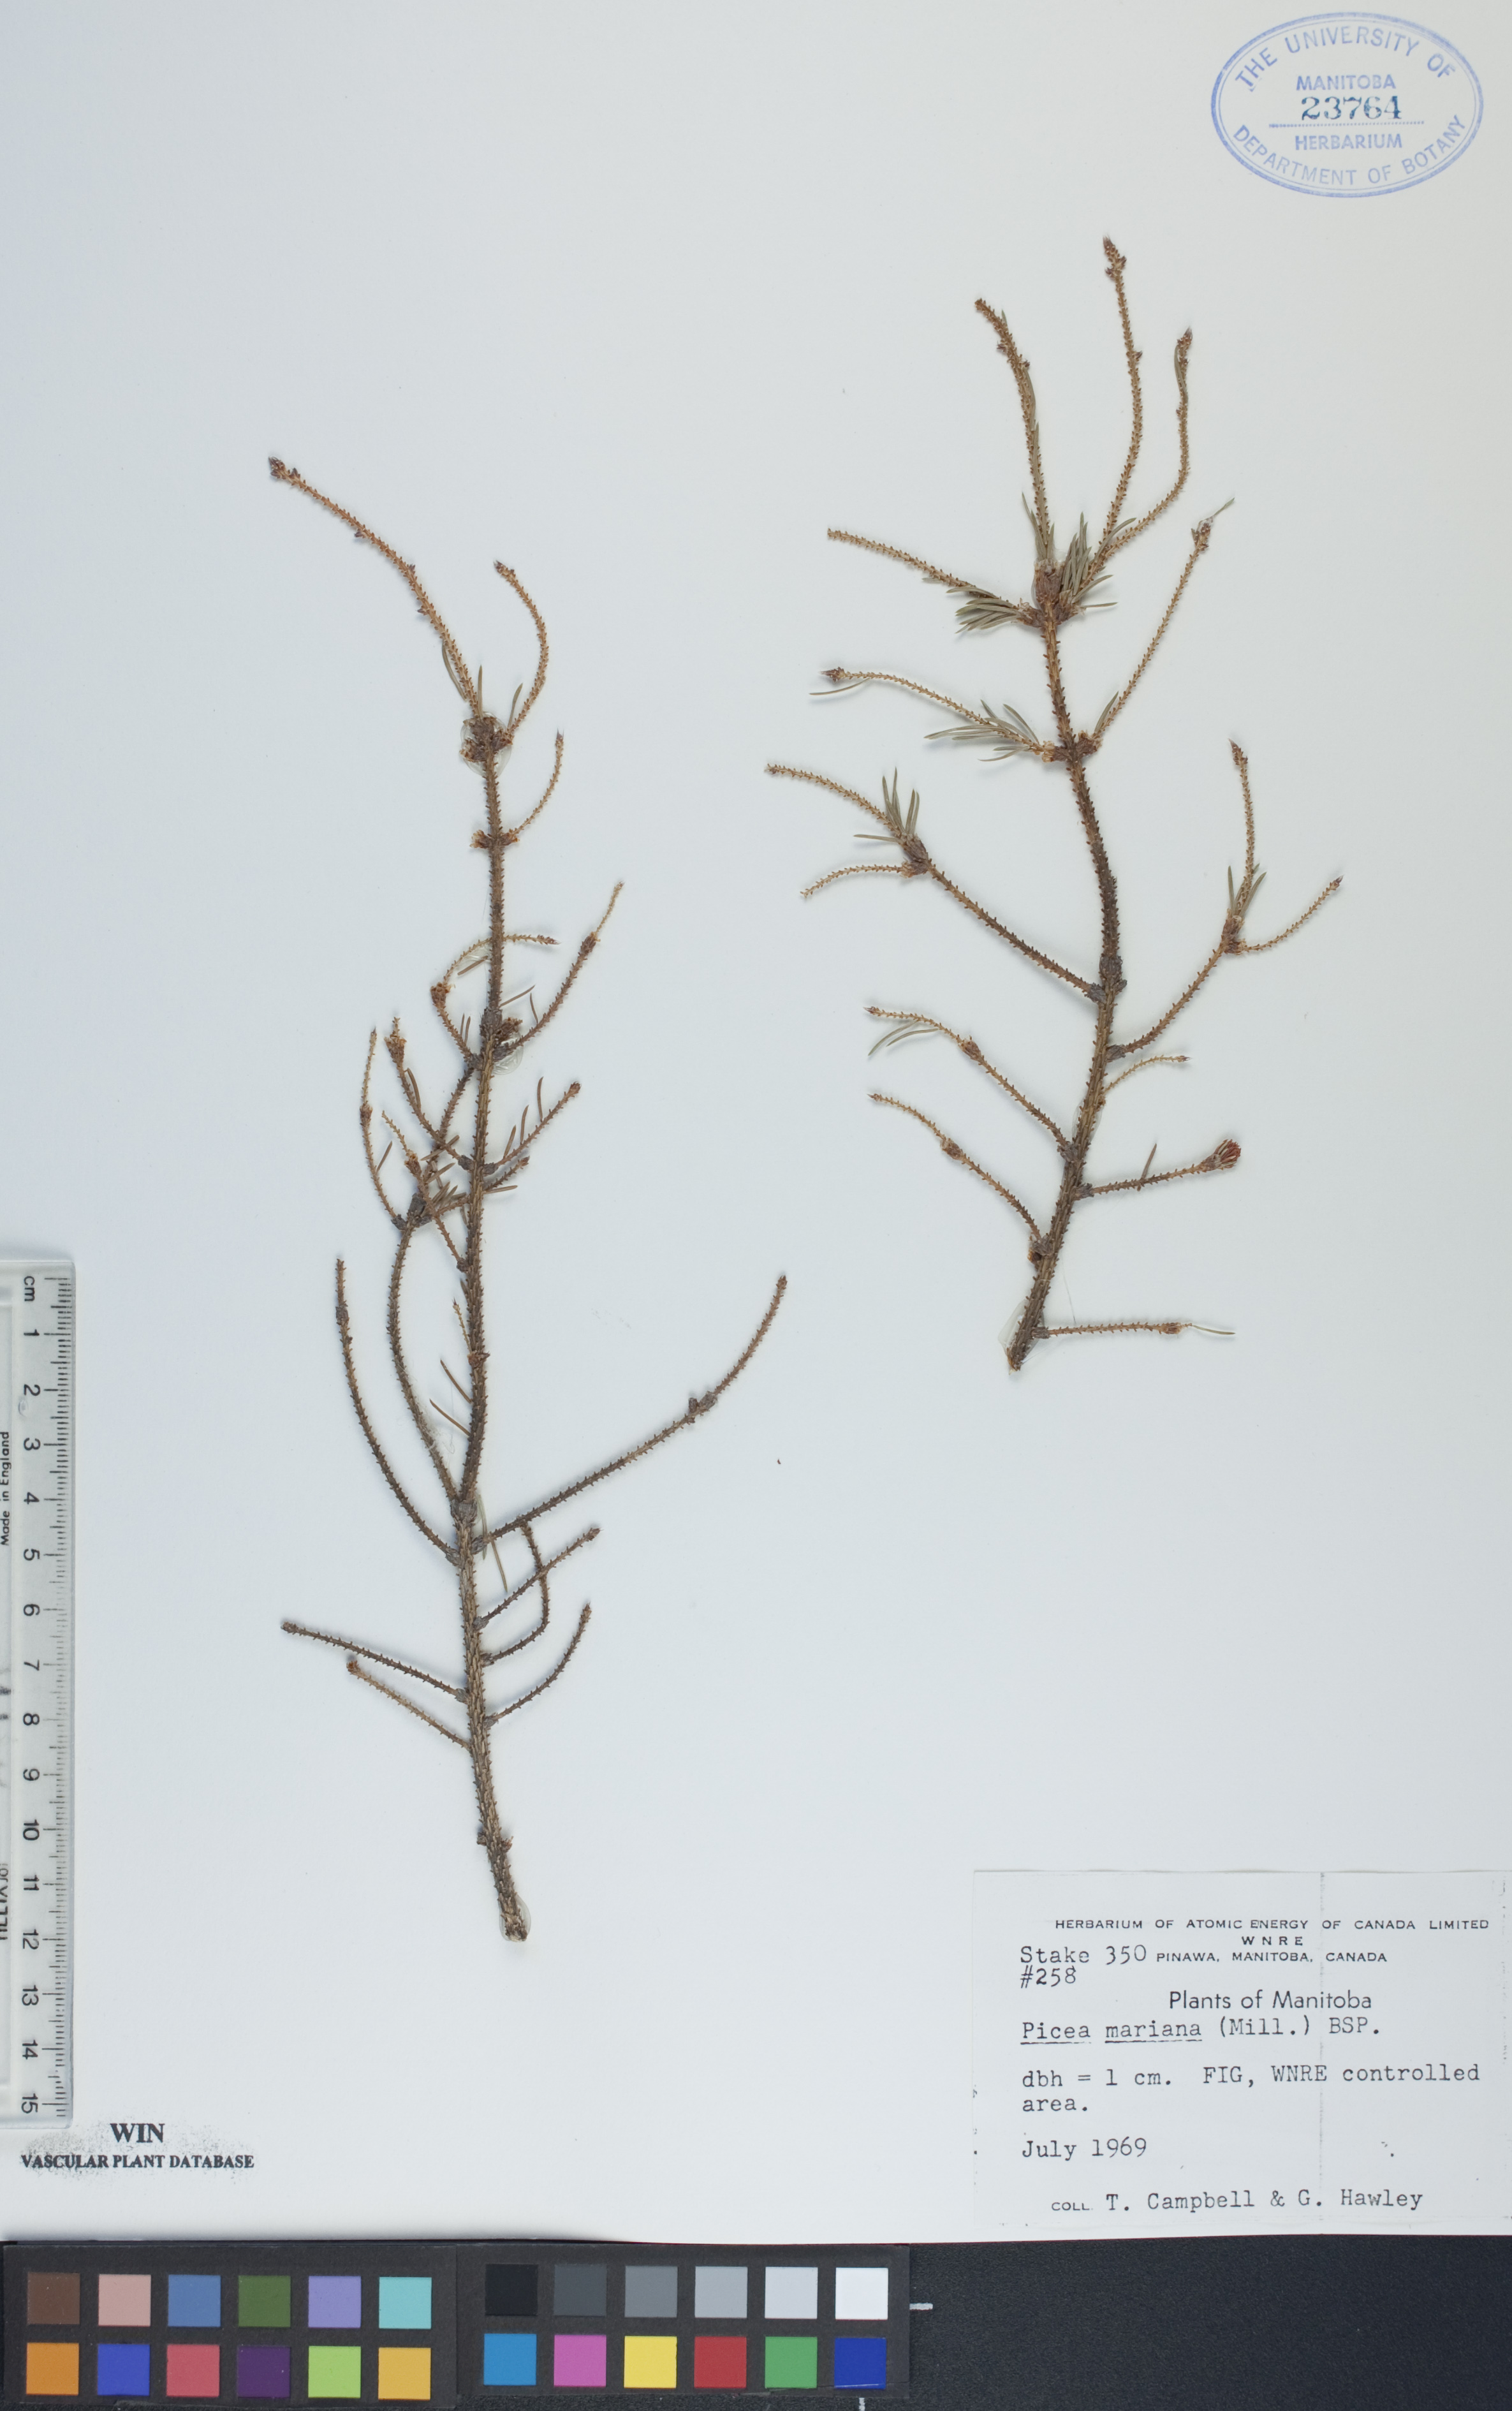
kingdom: Plantae
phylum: Tracheophyta
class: Pinopsida
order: Pinales
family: Pinaceae
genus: Picea
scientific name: Picea mariana
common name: Black spruce
